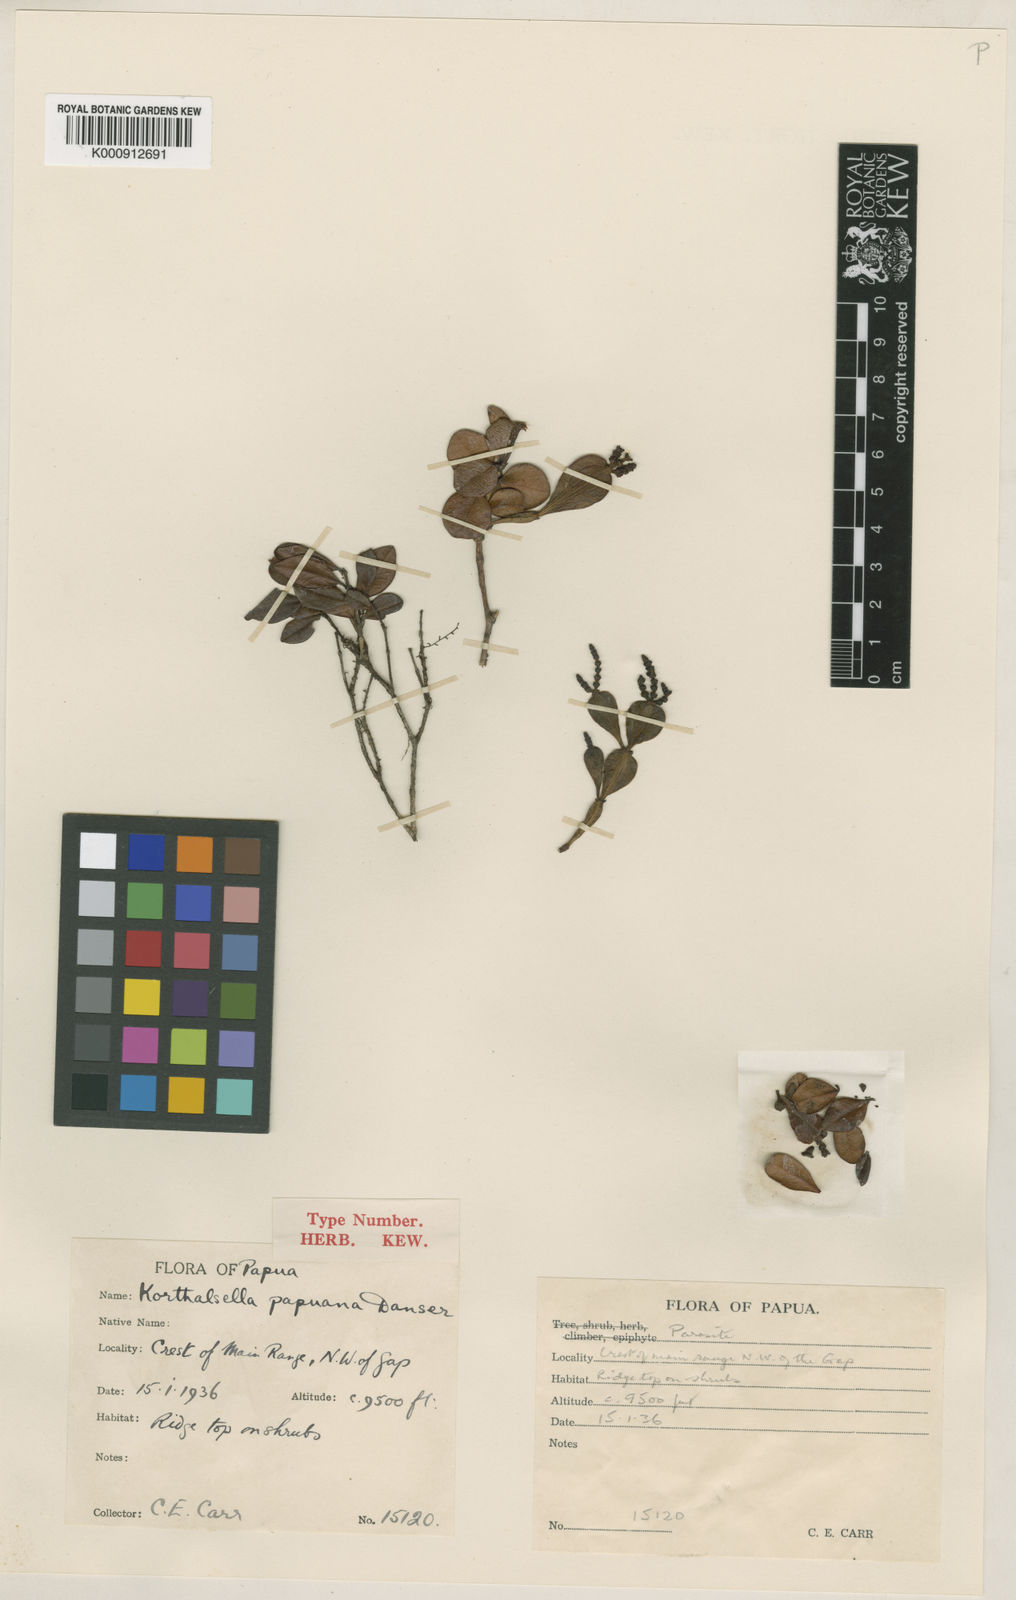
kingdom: Plantae
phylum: Tracheophyta
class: Magnoliopsida
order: Santalales
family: Viscaceae
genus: Korthalsella
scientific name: Korthalsella papuana
